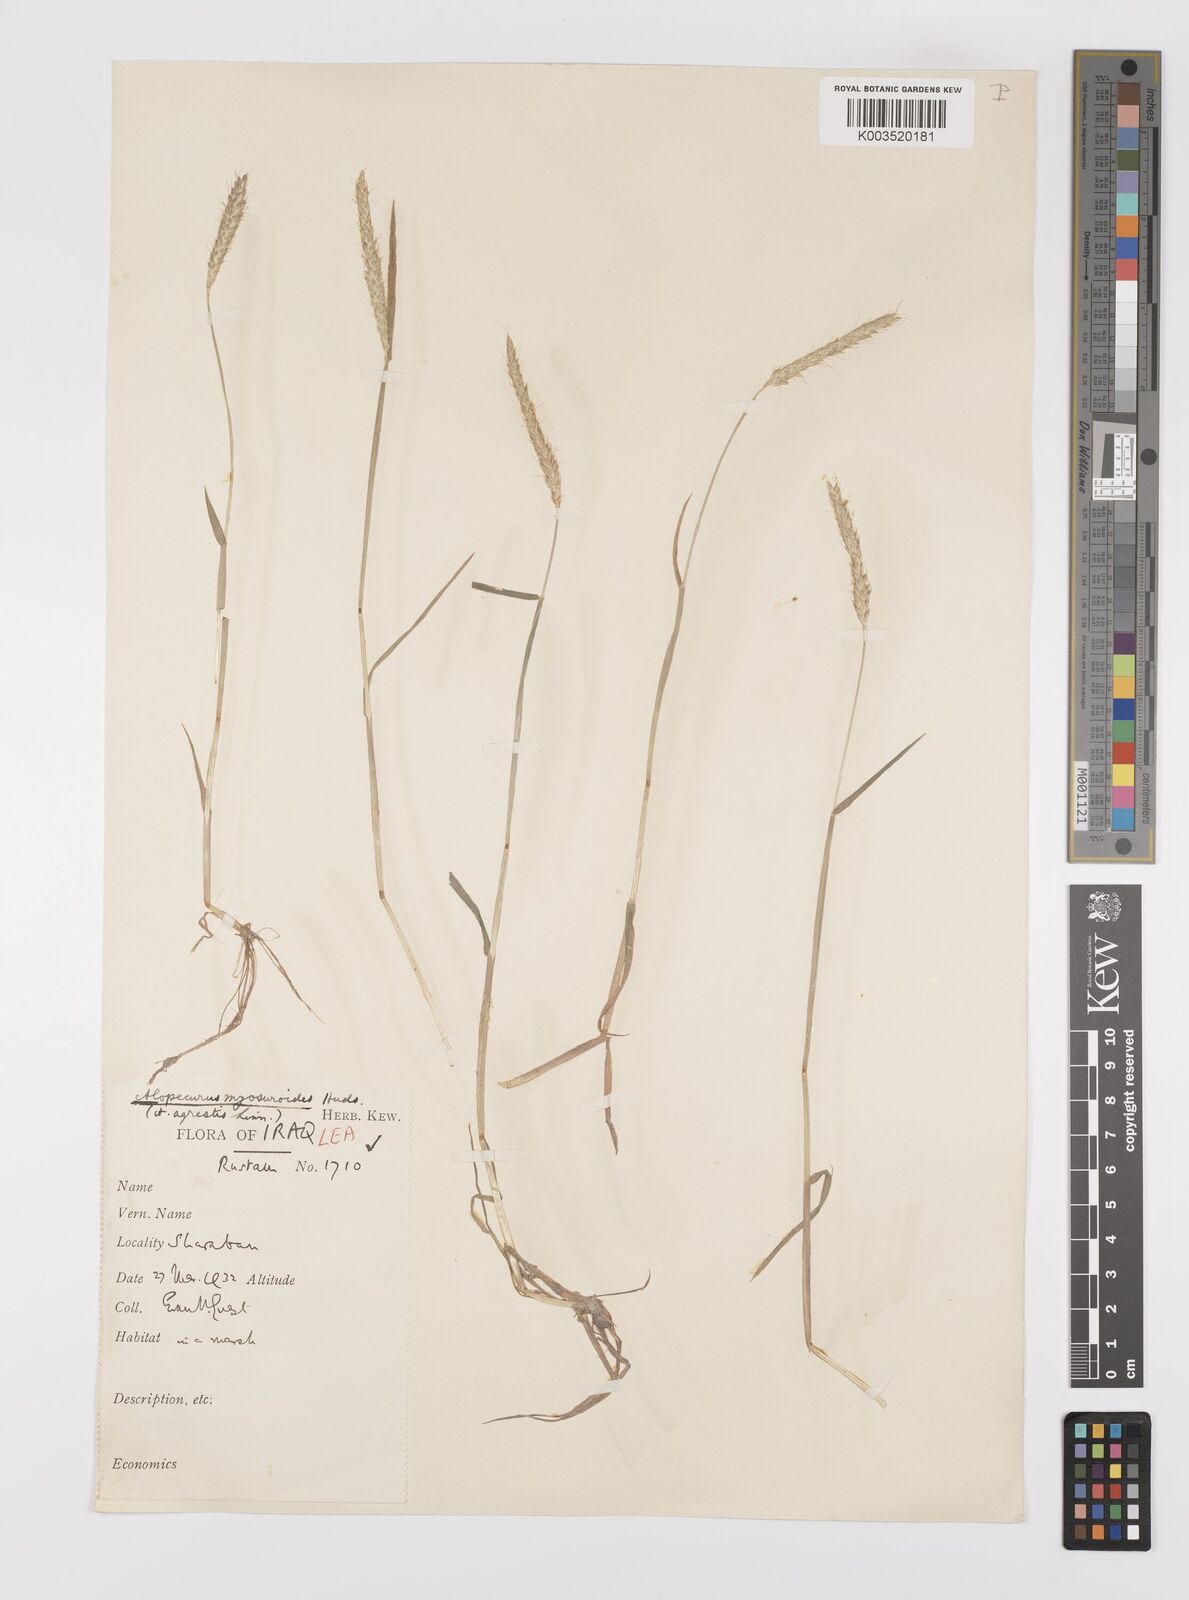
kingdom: Plantae
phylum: Tracheophyta
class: Liliopsida
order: Poales
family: Poaceae
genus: Alopecurus
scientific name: Alopecurus myosuroides
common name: Black-grass
